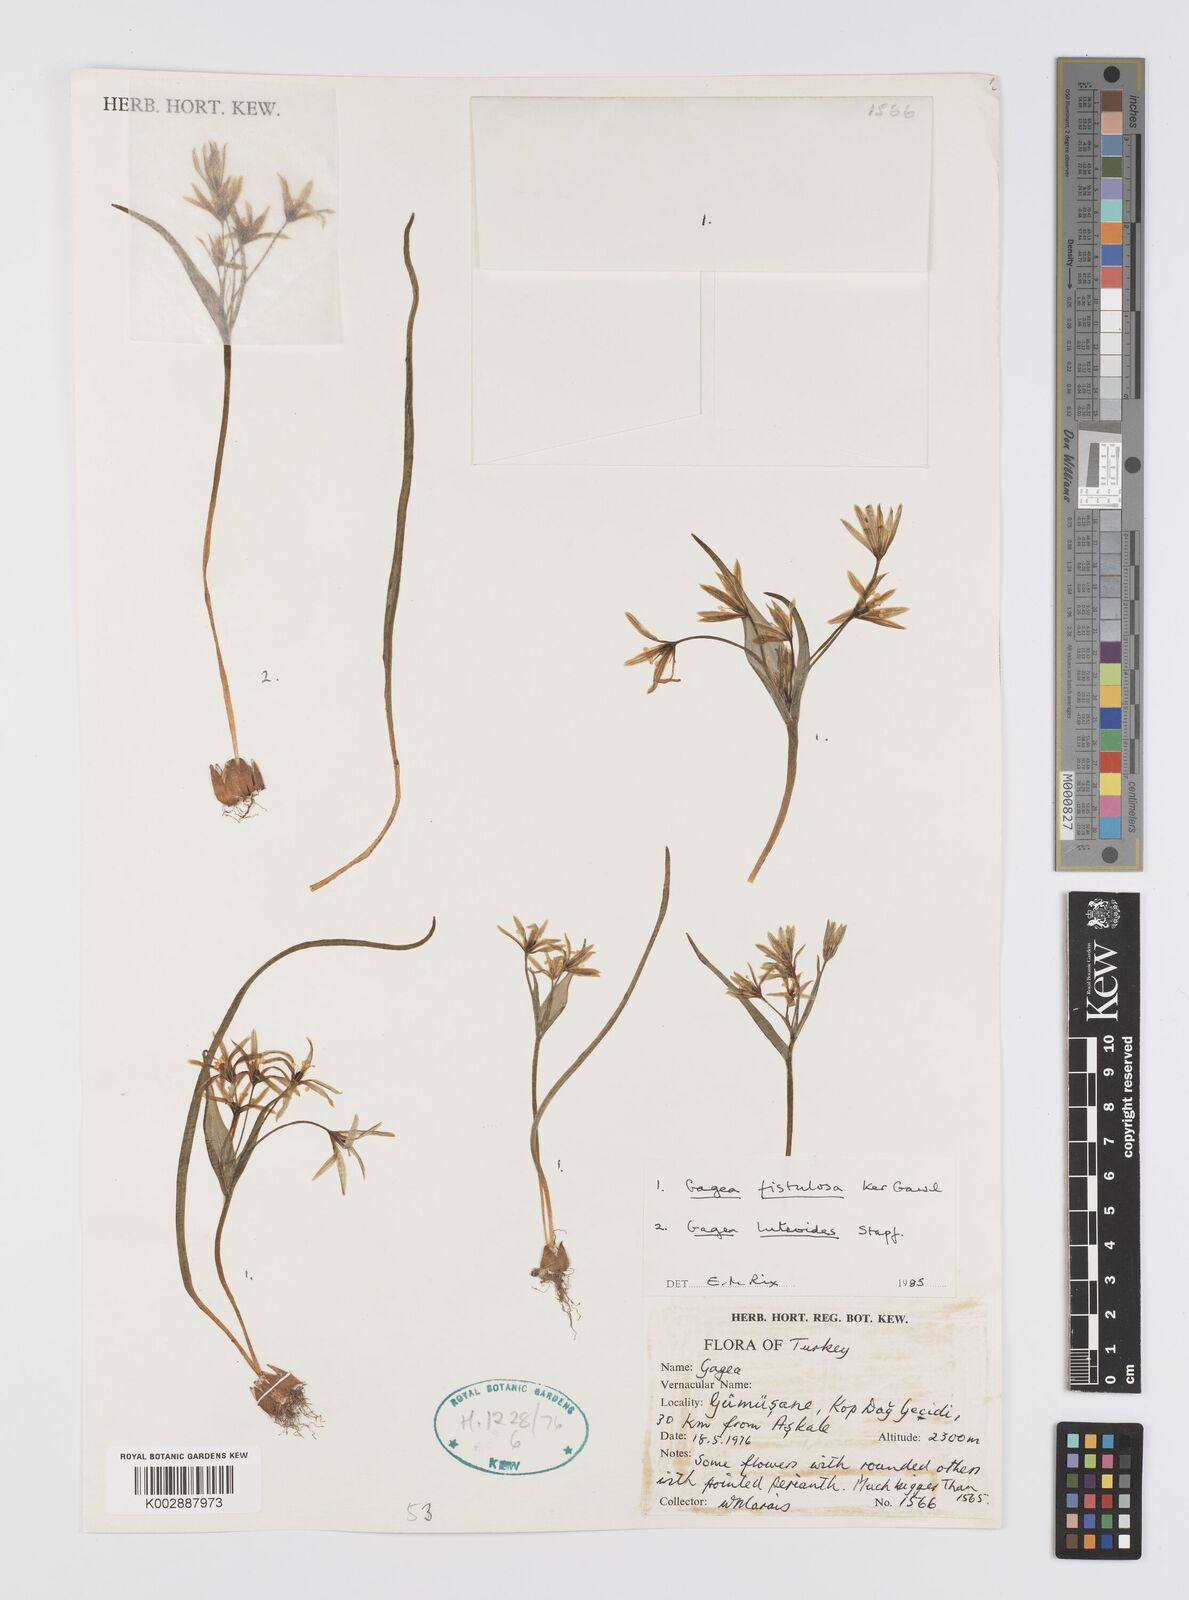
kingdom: Plantae
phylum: Tracheophyta
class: Liliopsida
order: Liliales
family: Liliaceae
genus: Gagea
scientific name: Gagea bohemica
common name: Early star-of-bethlehem
